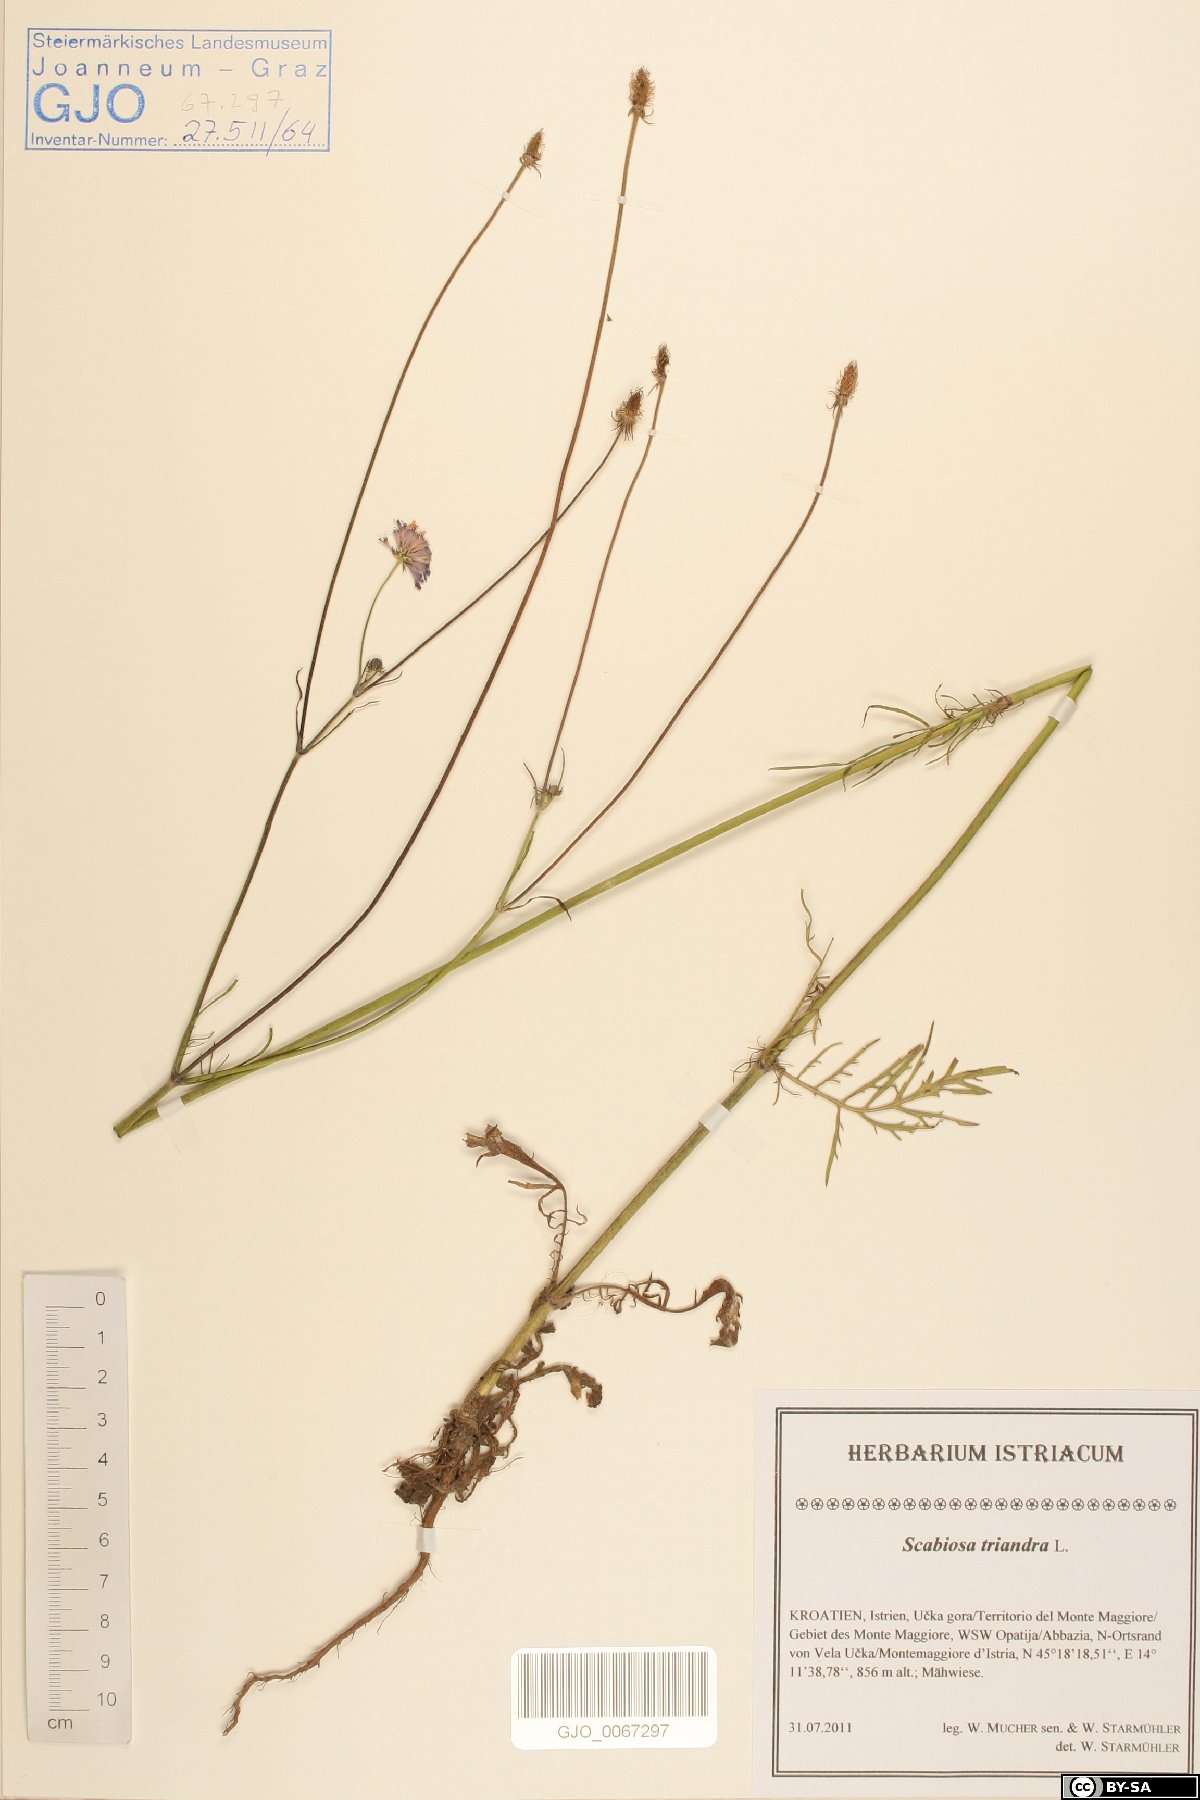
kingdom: Plantae
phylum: Tracheophyta
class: Magnoliopsida
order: Dipsacales
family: Caprifoliaceae
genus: Scabiosa
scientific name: Scabiosa triandra
